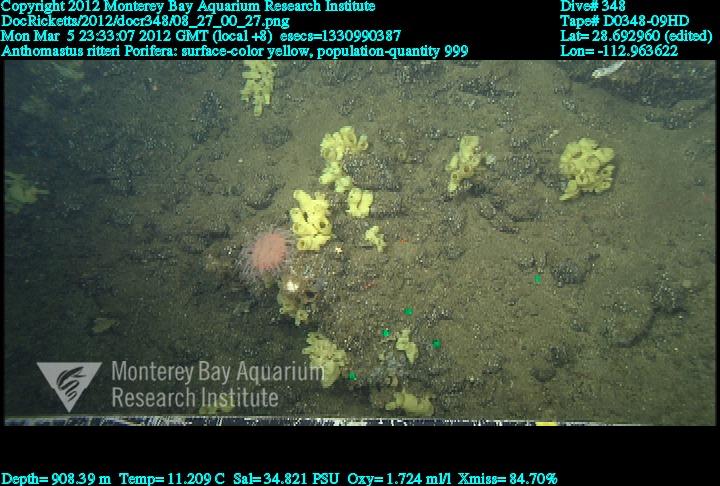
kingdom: Animalia
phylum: Porifera
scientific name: Porifera
